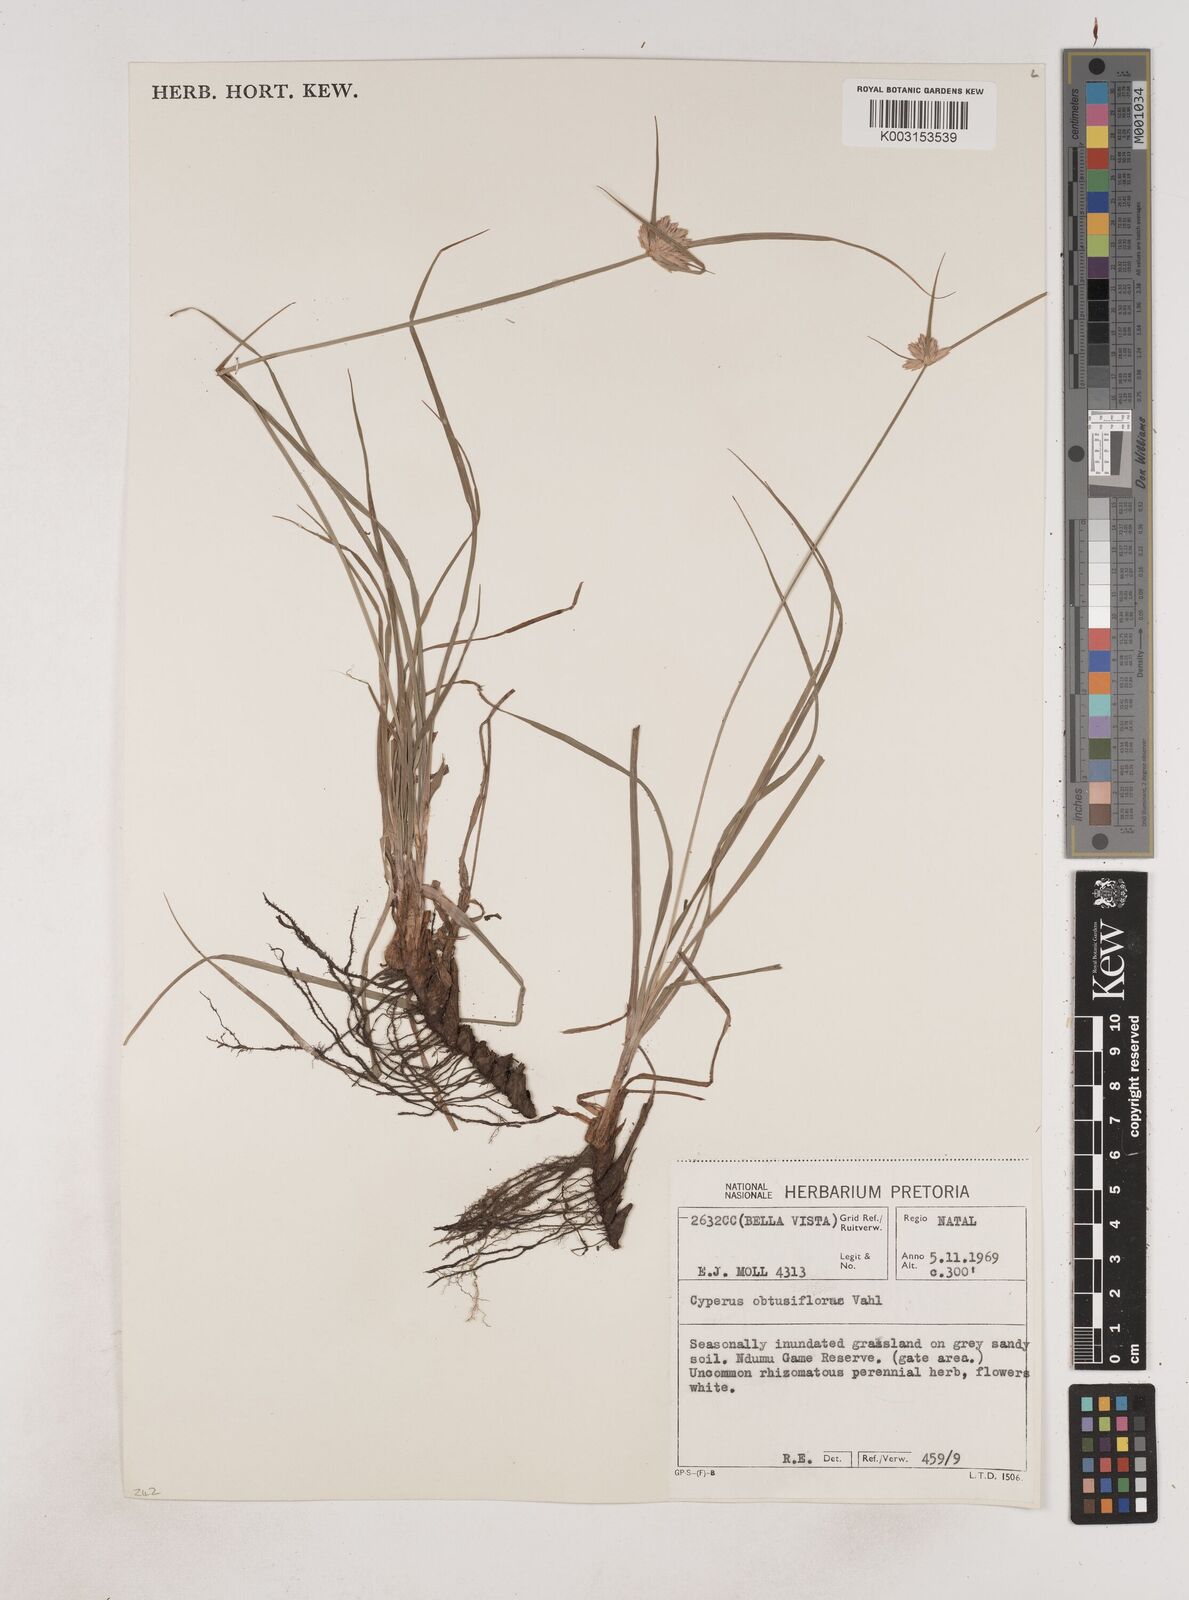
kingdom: Plantae
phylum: Tracheophyta
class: Liliopsida
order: Poales
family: Cyperaceae
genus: Cyperus
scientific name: Cyperus niveus
